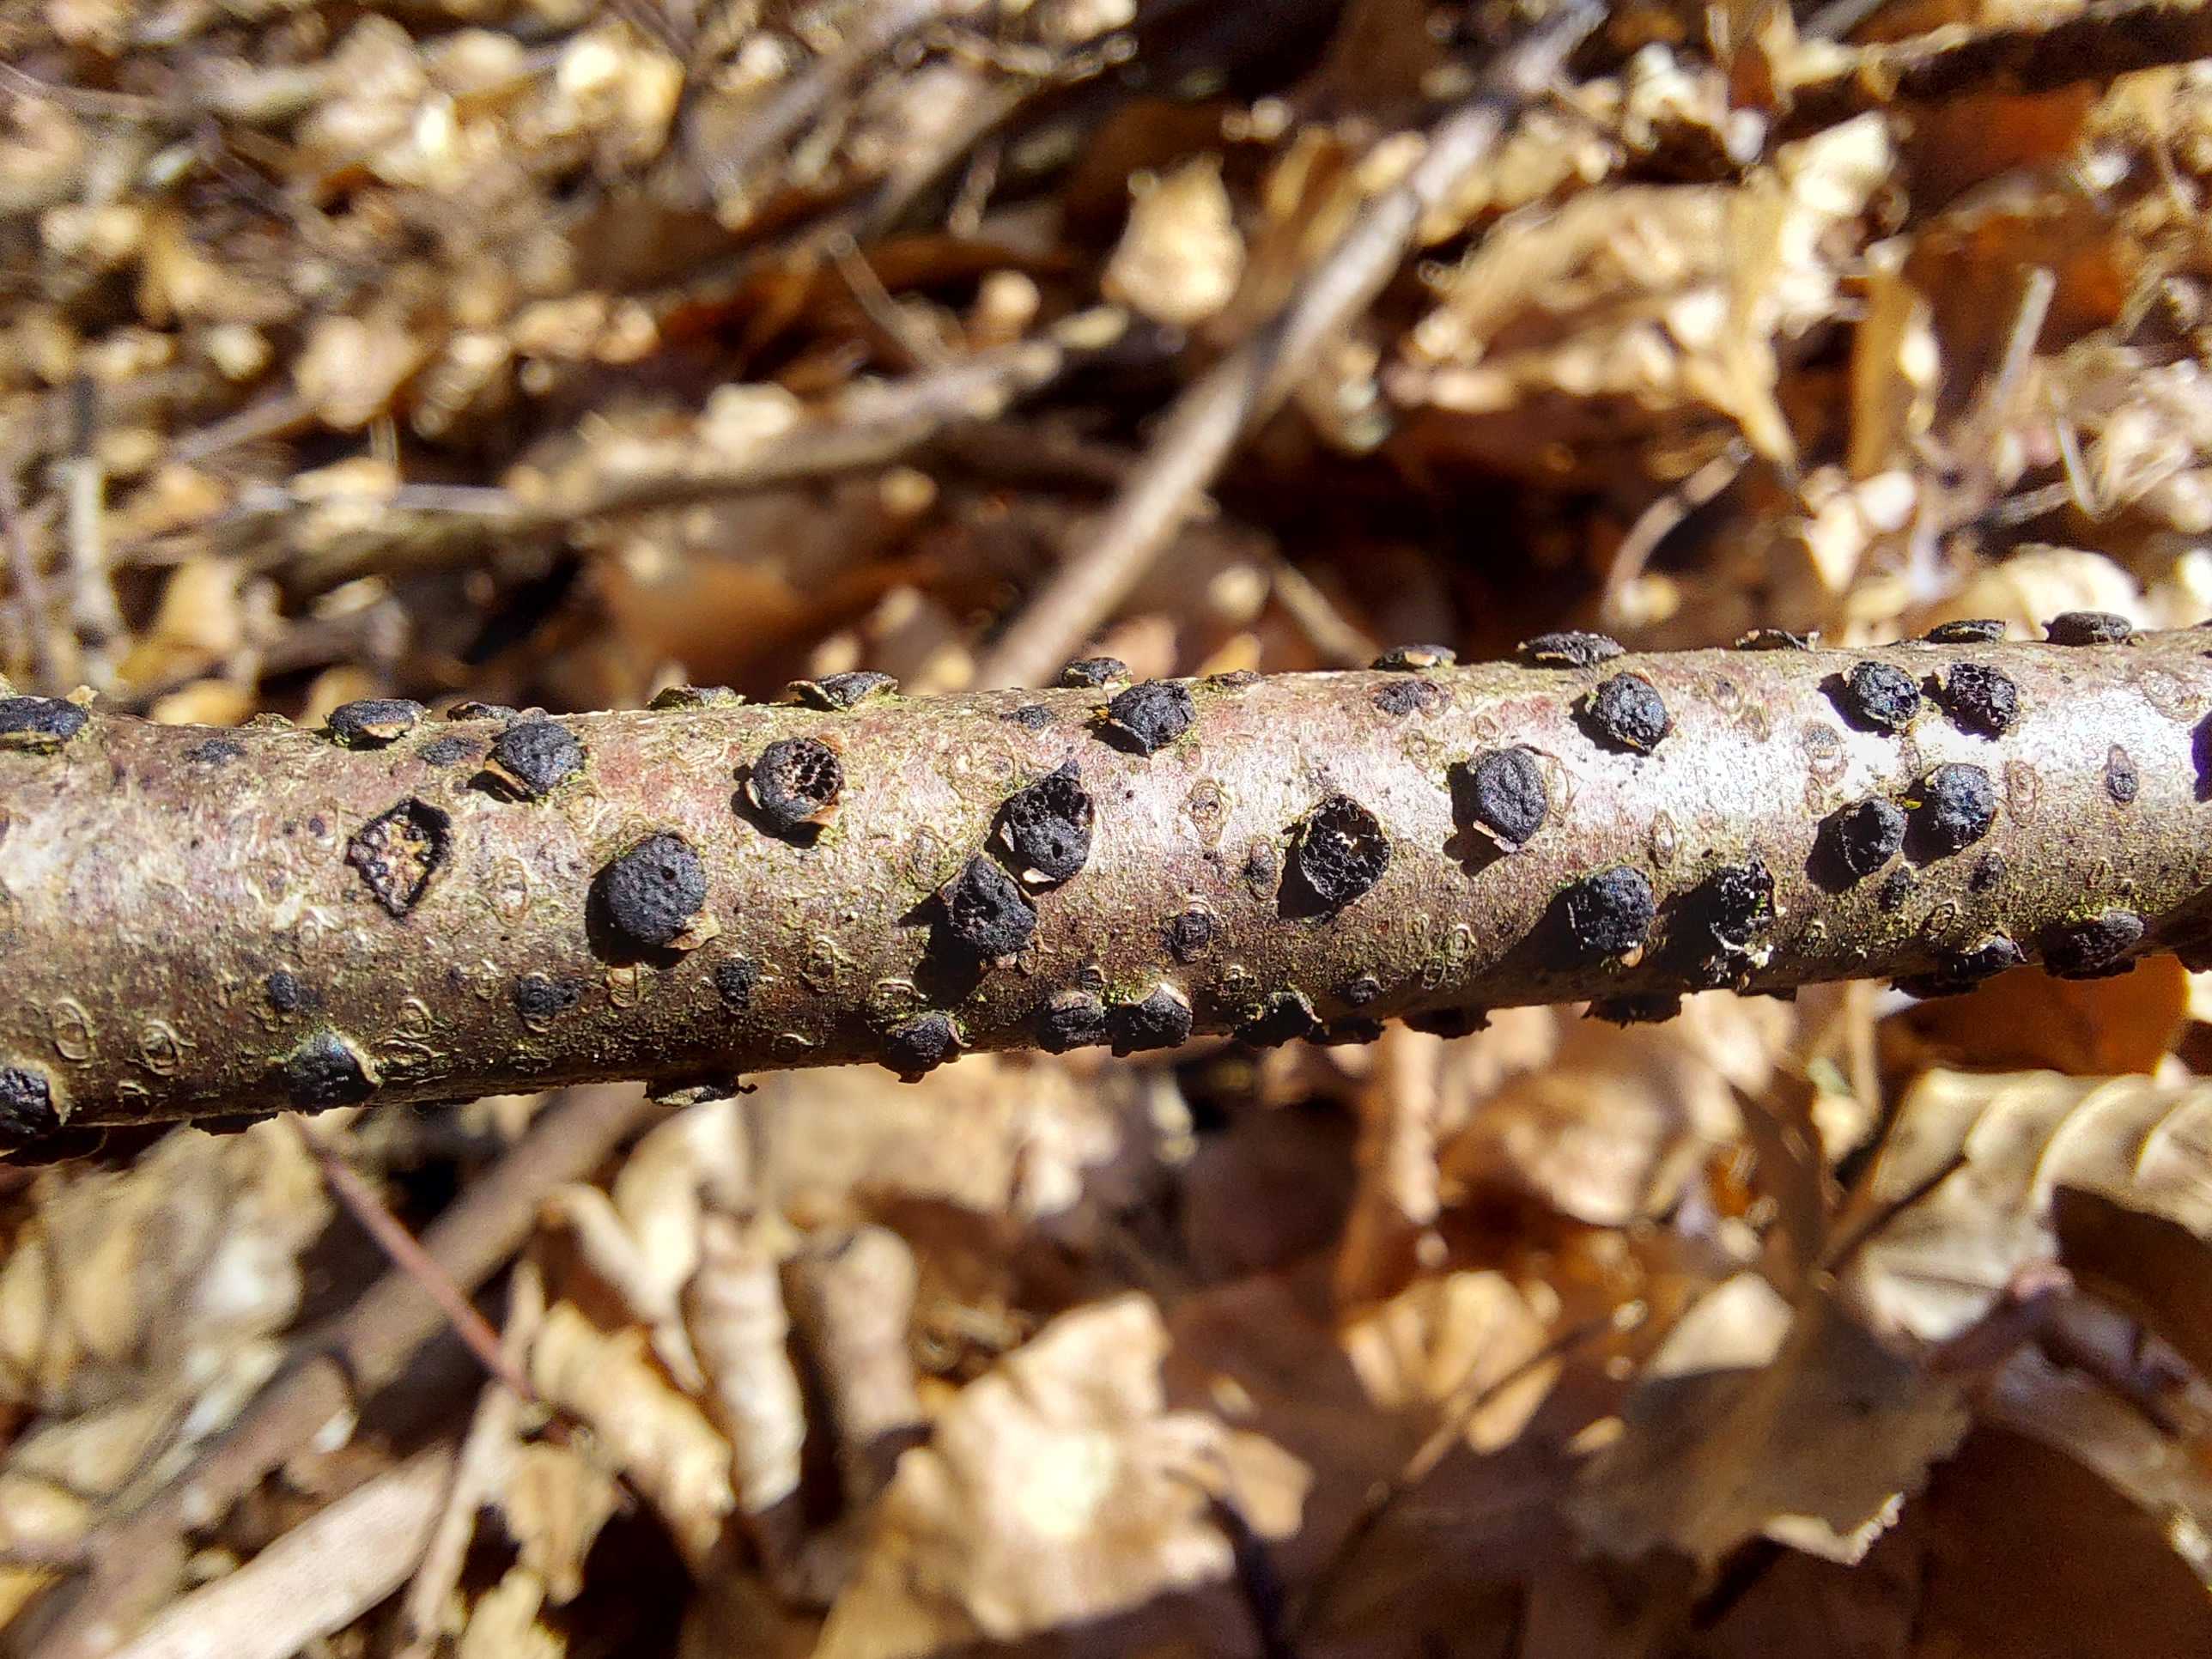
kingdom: Fungi
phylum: Ascomycota
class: Sordariomycetes
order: Xylariales
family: Diatrypaceae
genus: Diatrype
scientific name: Diatrype disciformis
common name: kant-kulskorpe
